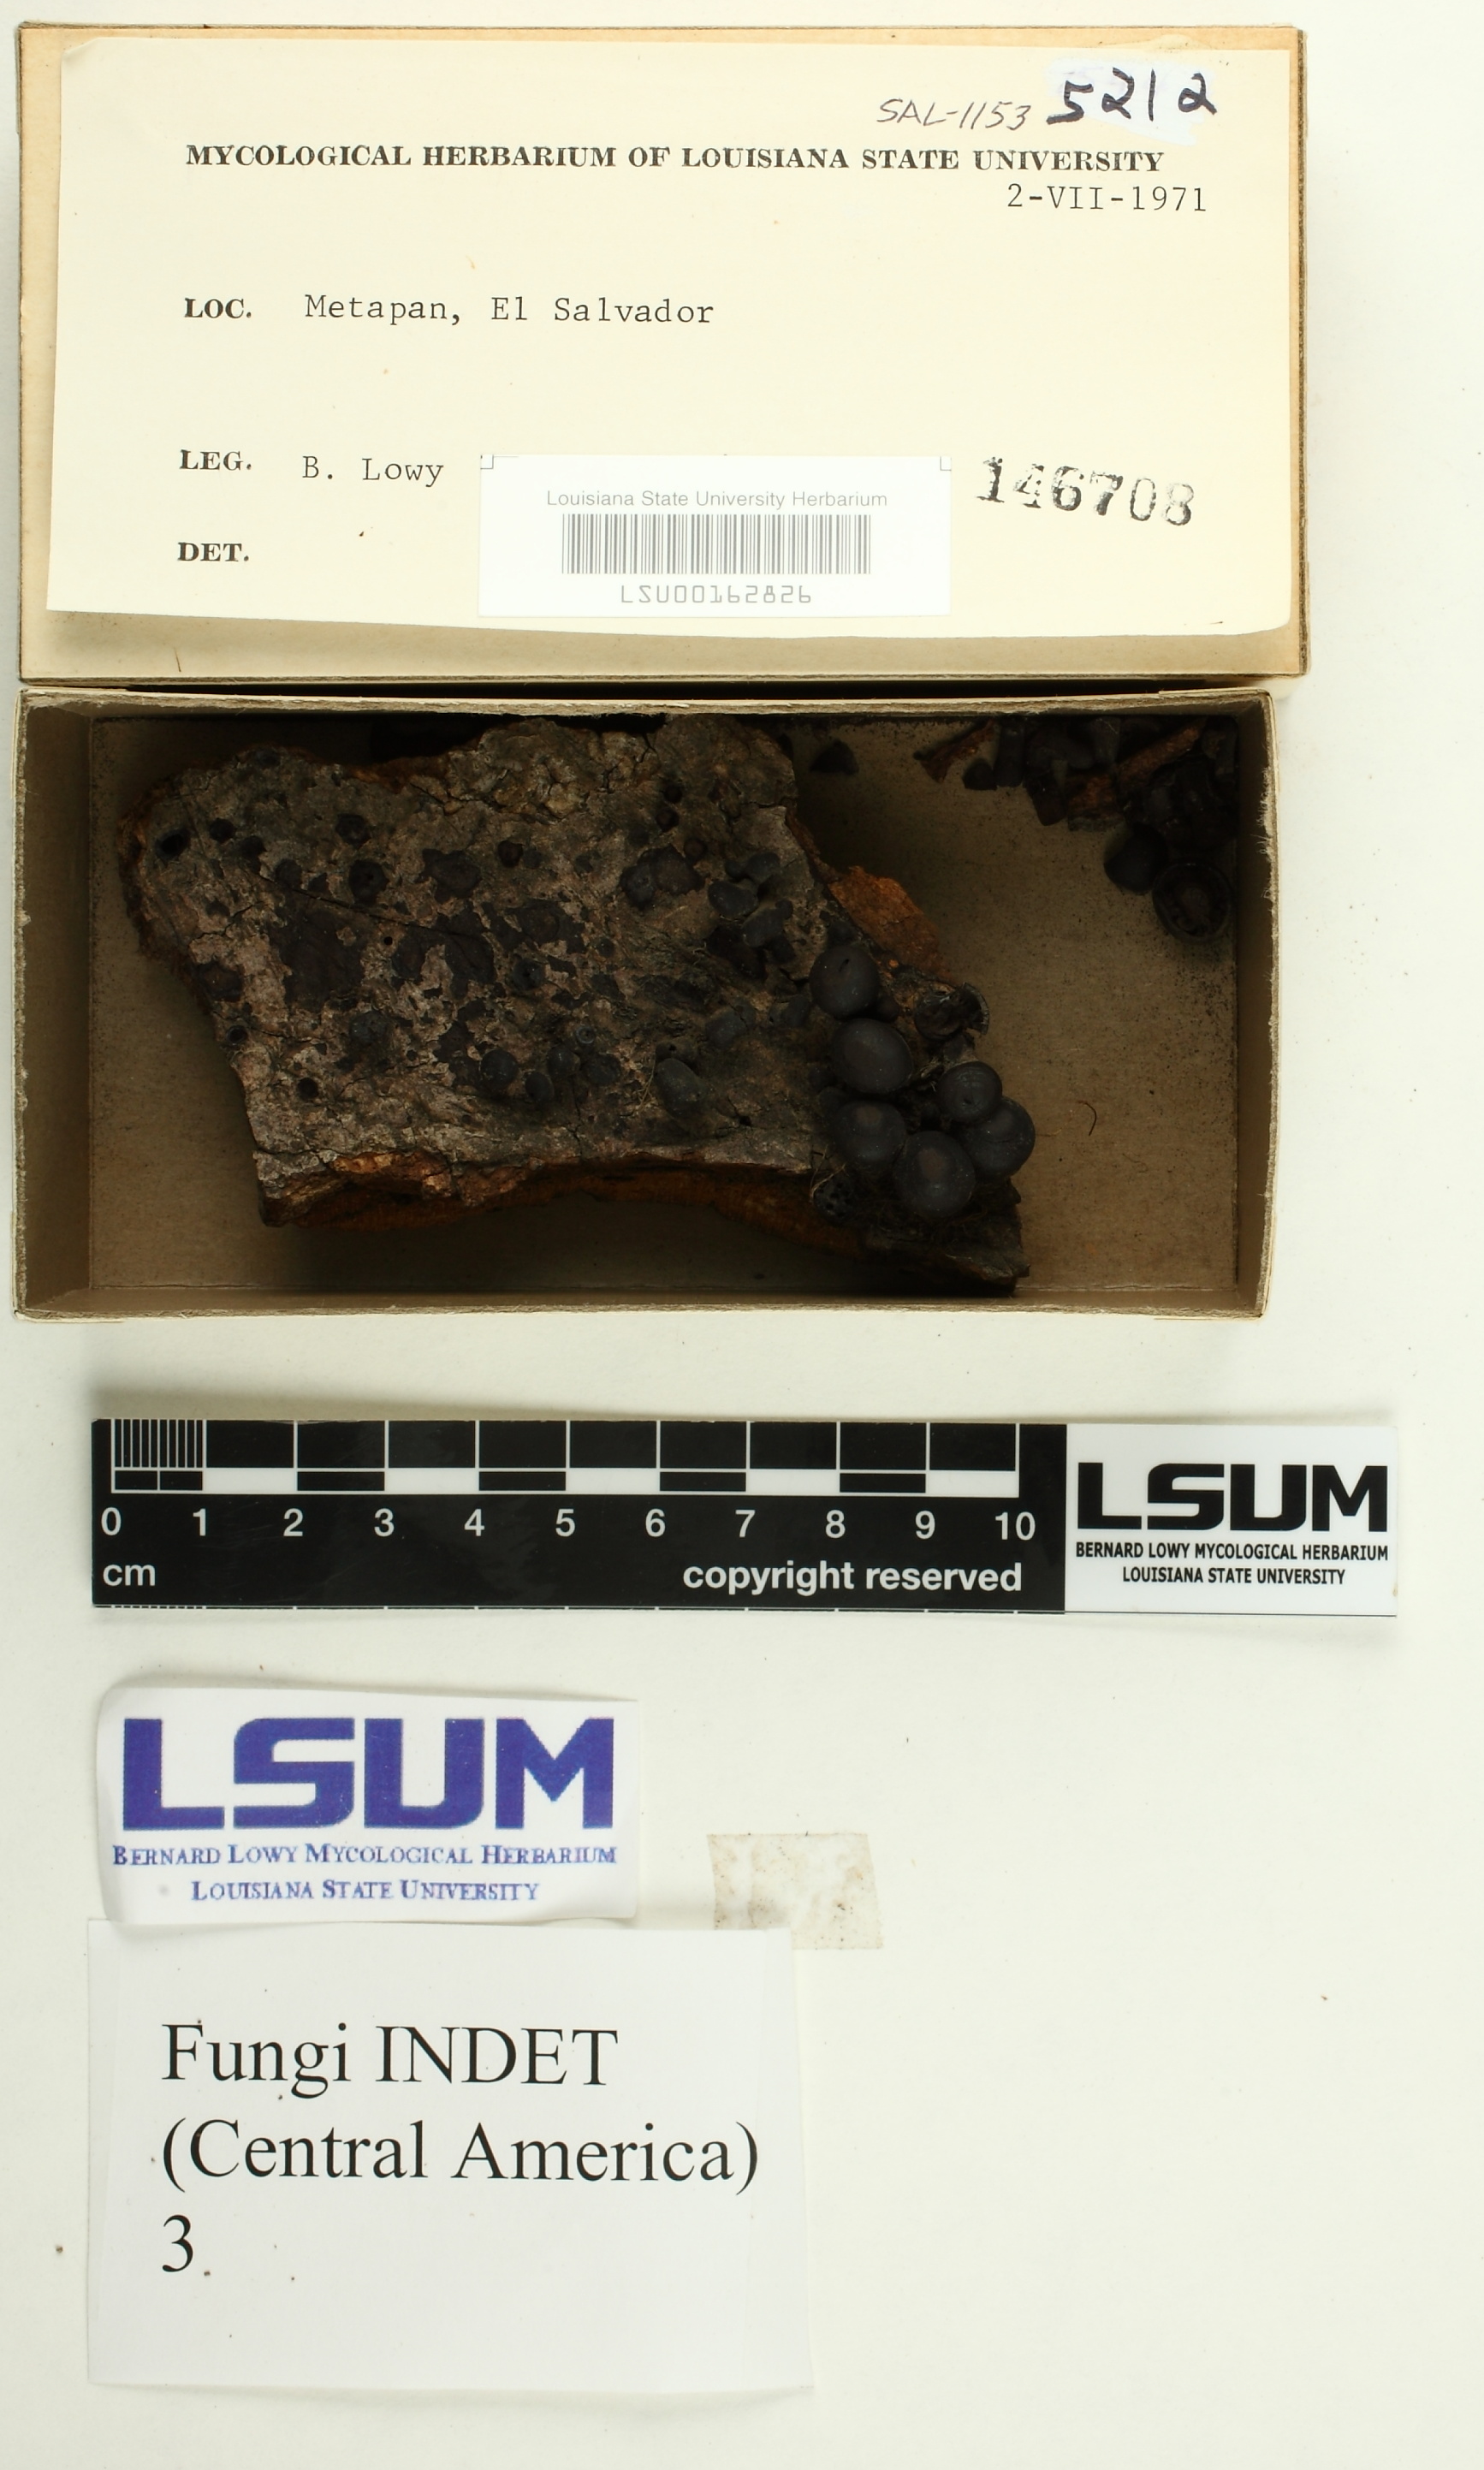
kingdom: Fungi
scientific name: Fungi
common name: Fungi
